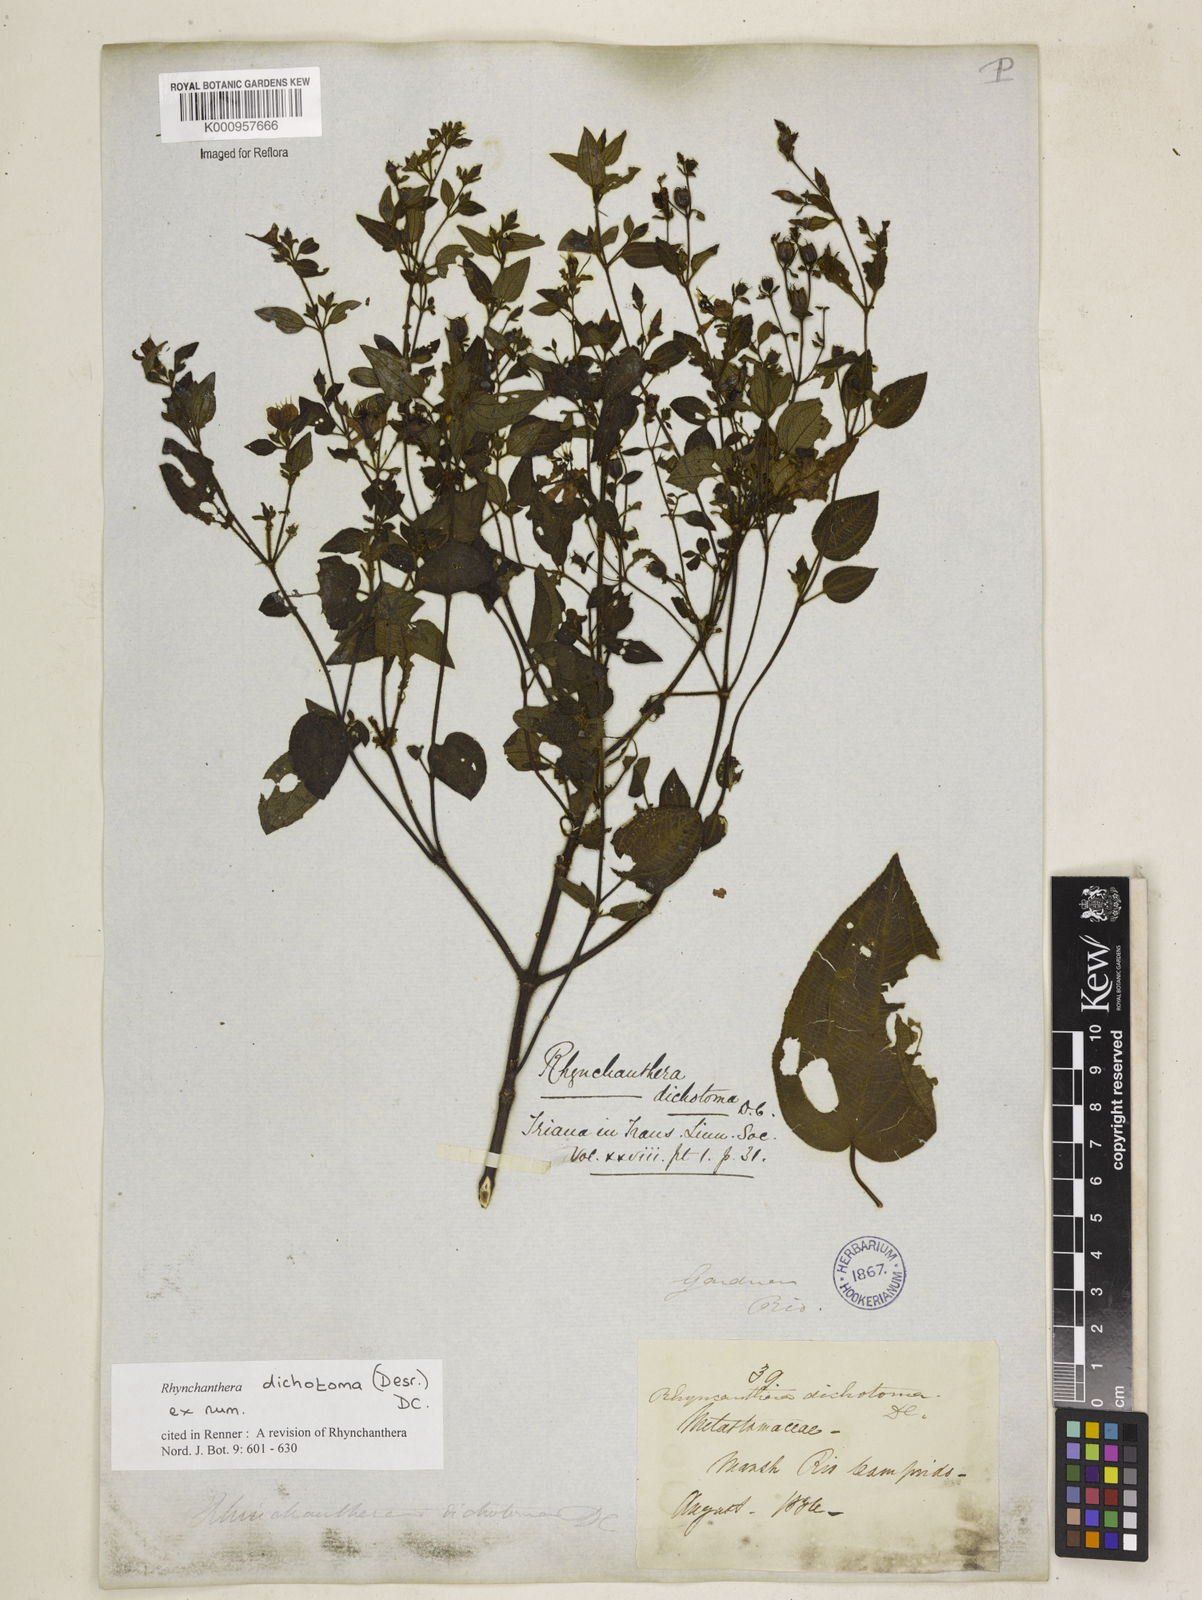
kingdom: Plantae
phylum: Tracheophyta
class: Magnoliopsida
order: Myrtales
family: Melastomataceae
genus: Rhynchanthera
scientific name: Rhynchanthera dichotoma
